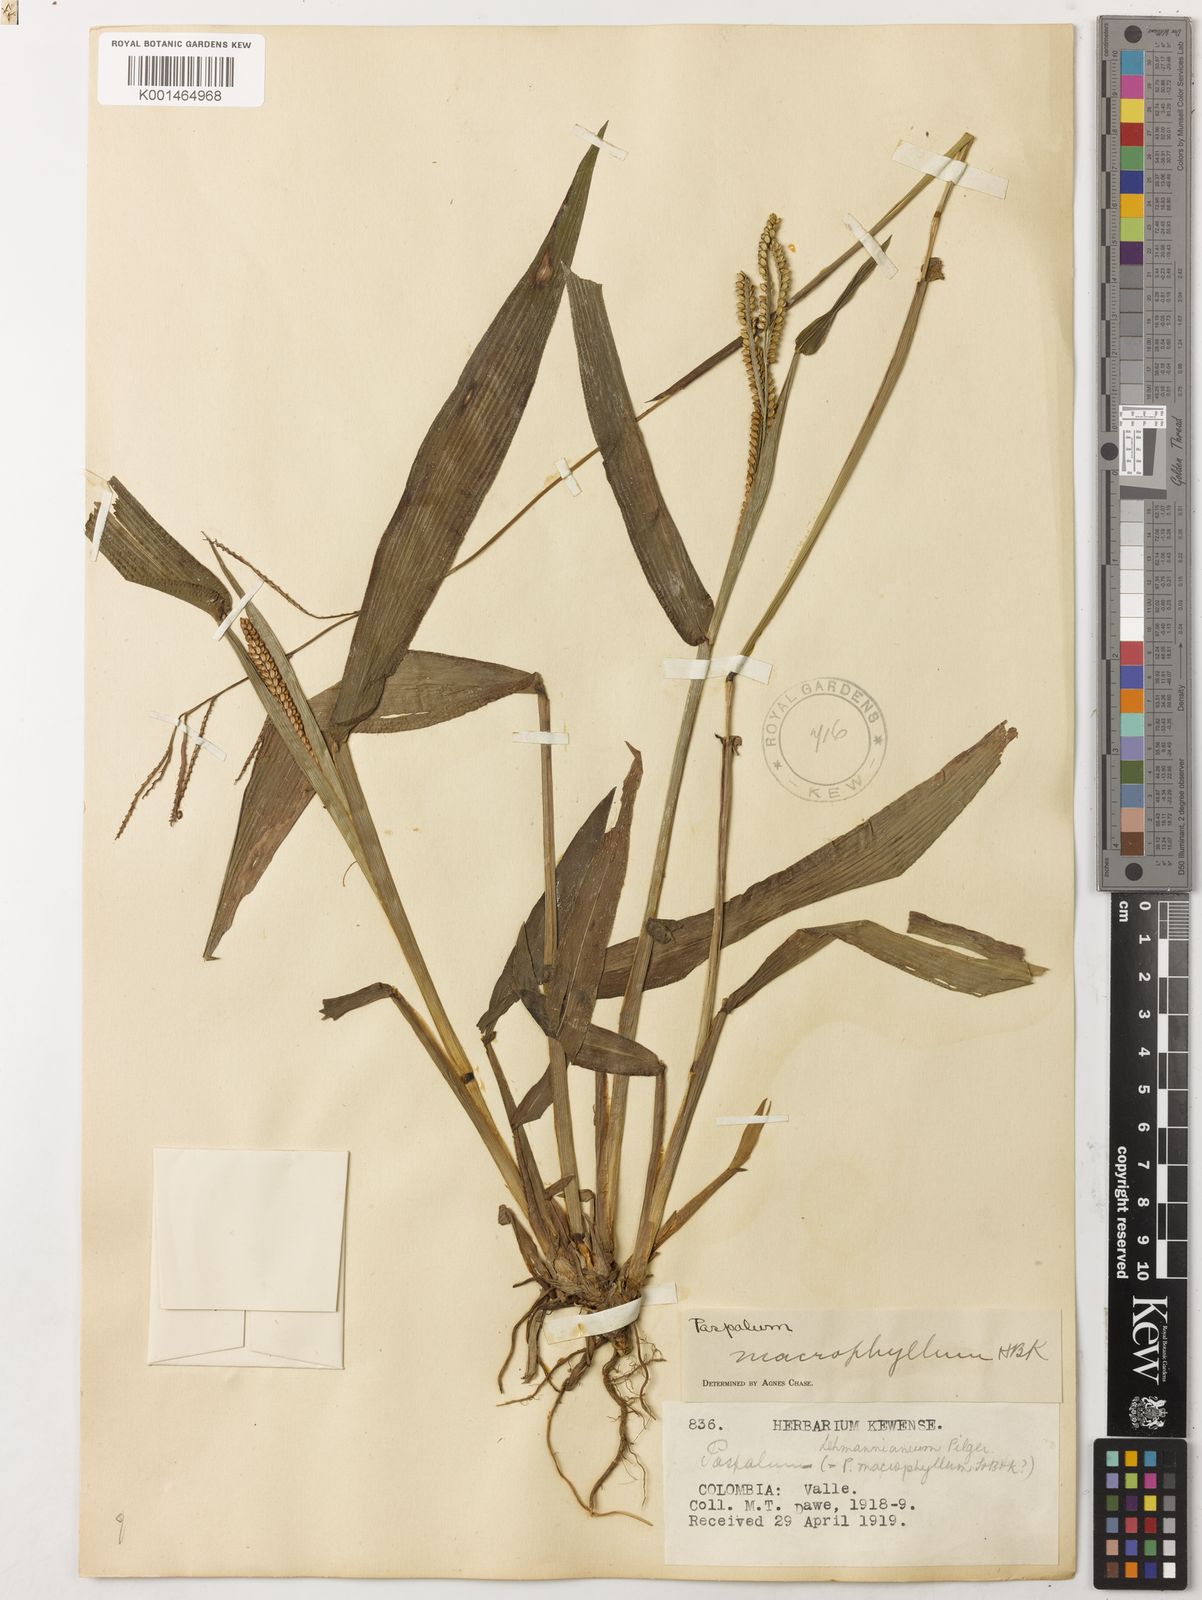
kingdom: Plantae
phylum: Tracheophyta
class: Liliopsida
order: Poales
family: Poaceae
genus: Paspalum
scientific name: Paspalum macrophyllum
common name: Bigleaf paspalum
